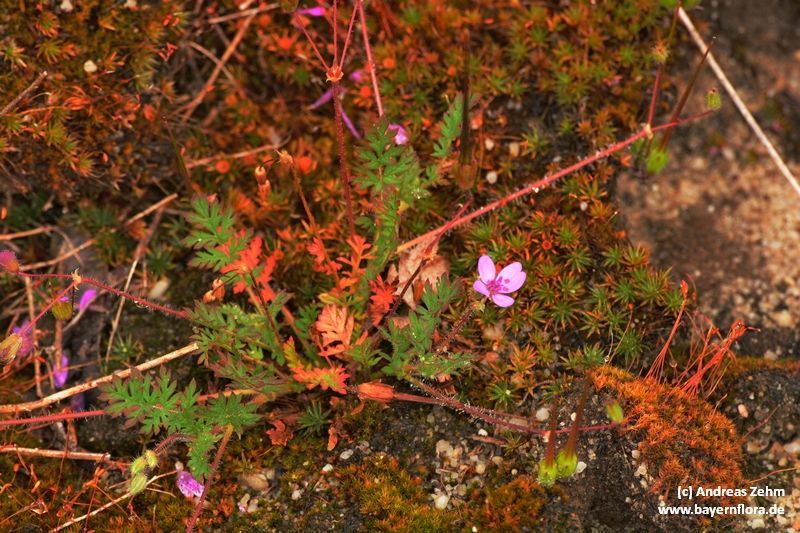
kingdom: Plantae
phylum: Tracheophyta
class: Magnoliopsida
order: Geraniales
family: Geraniaceae
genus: Erodium
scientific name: Erodium cicutarium
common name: Common stork's-bill
